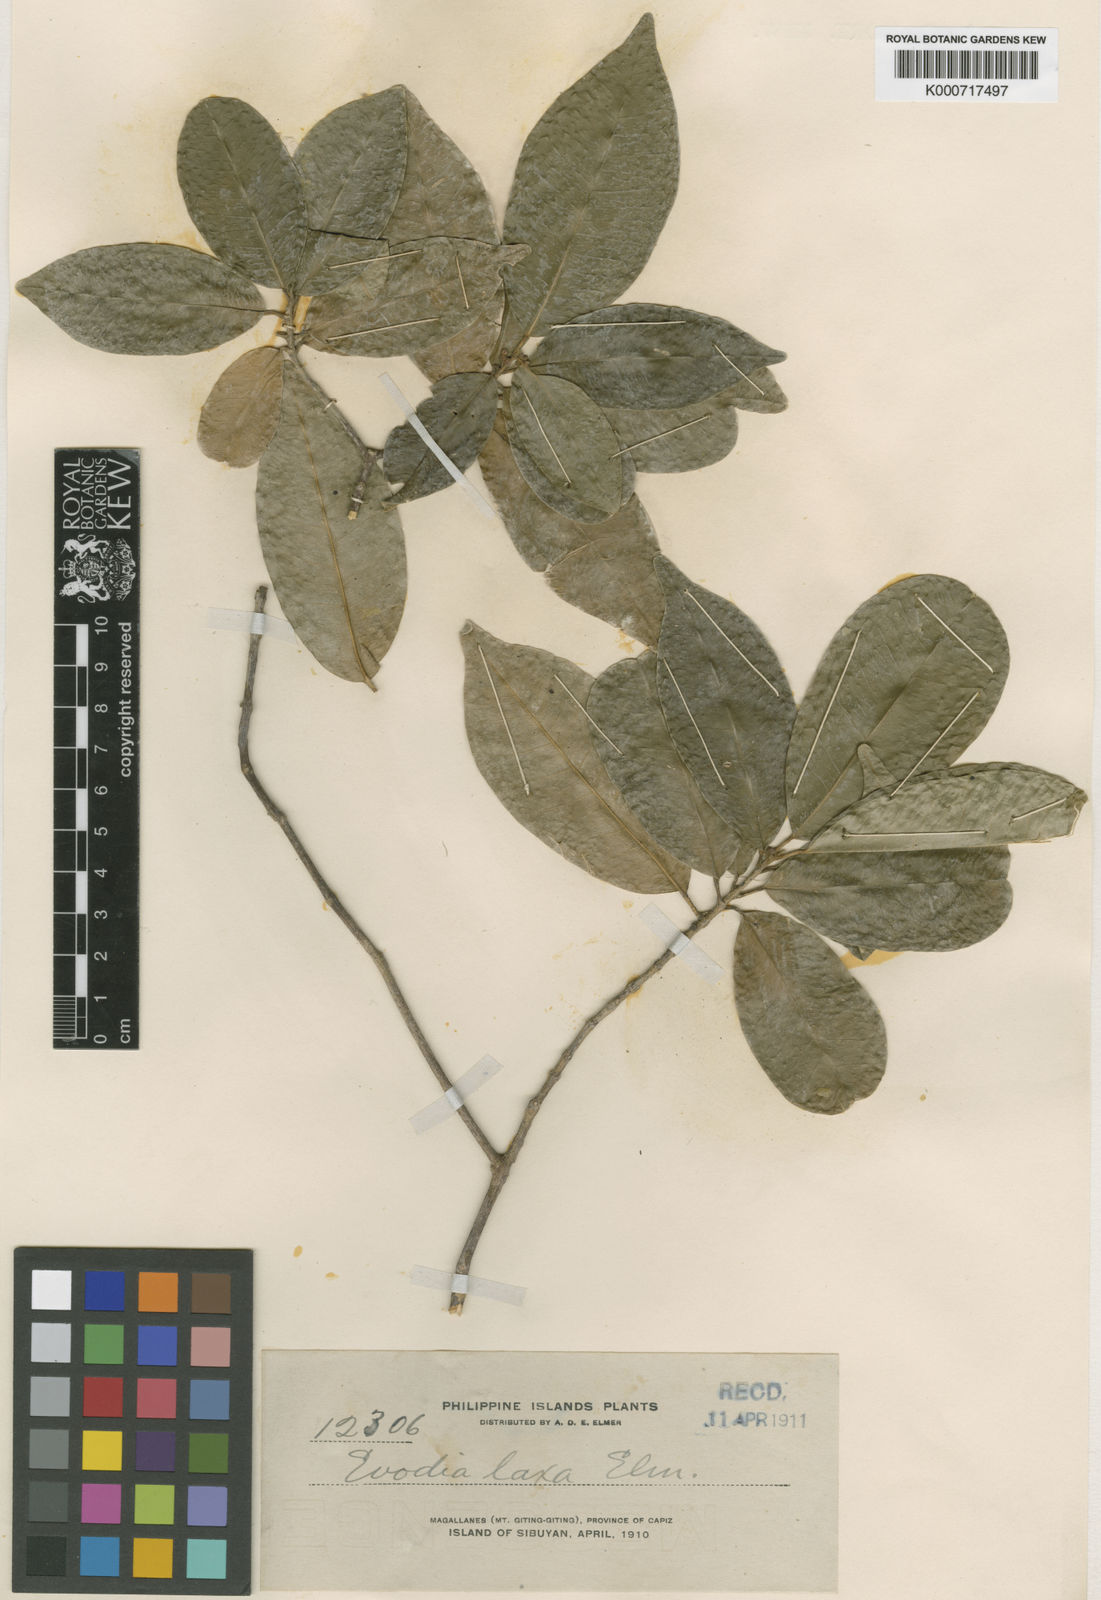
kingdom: Plantae
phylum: Tracheophyta
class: Magnoliopsida
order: Sapindales
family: Rutaceae
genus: Melicope
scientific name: Melicope laxa
